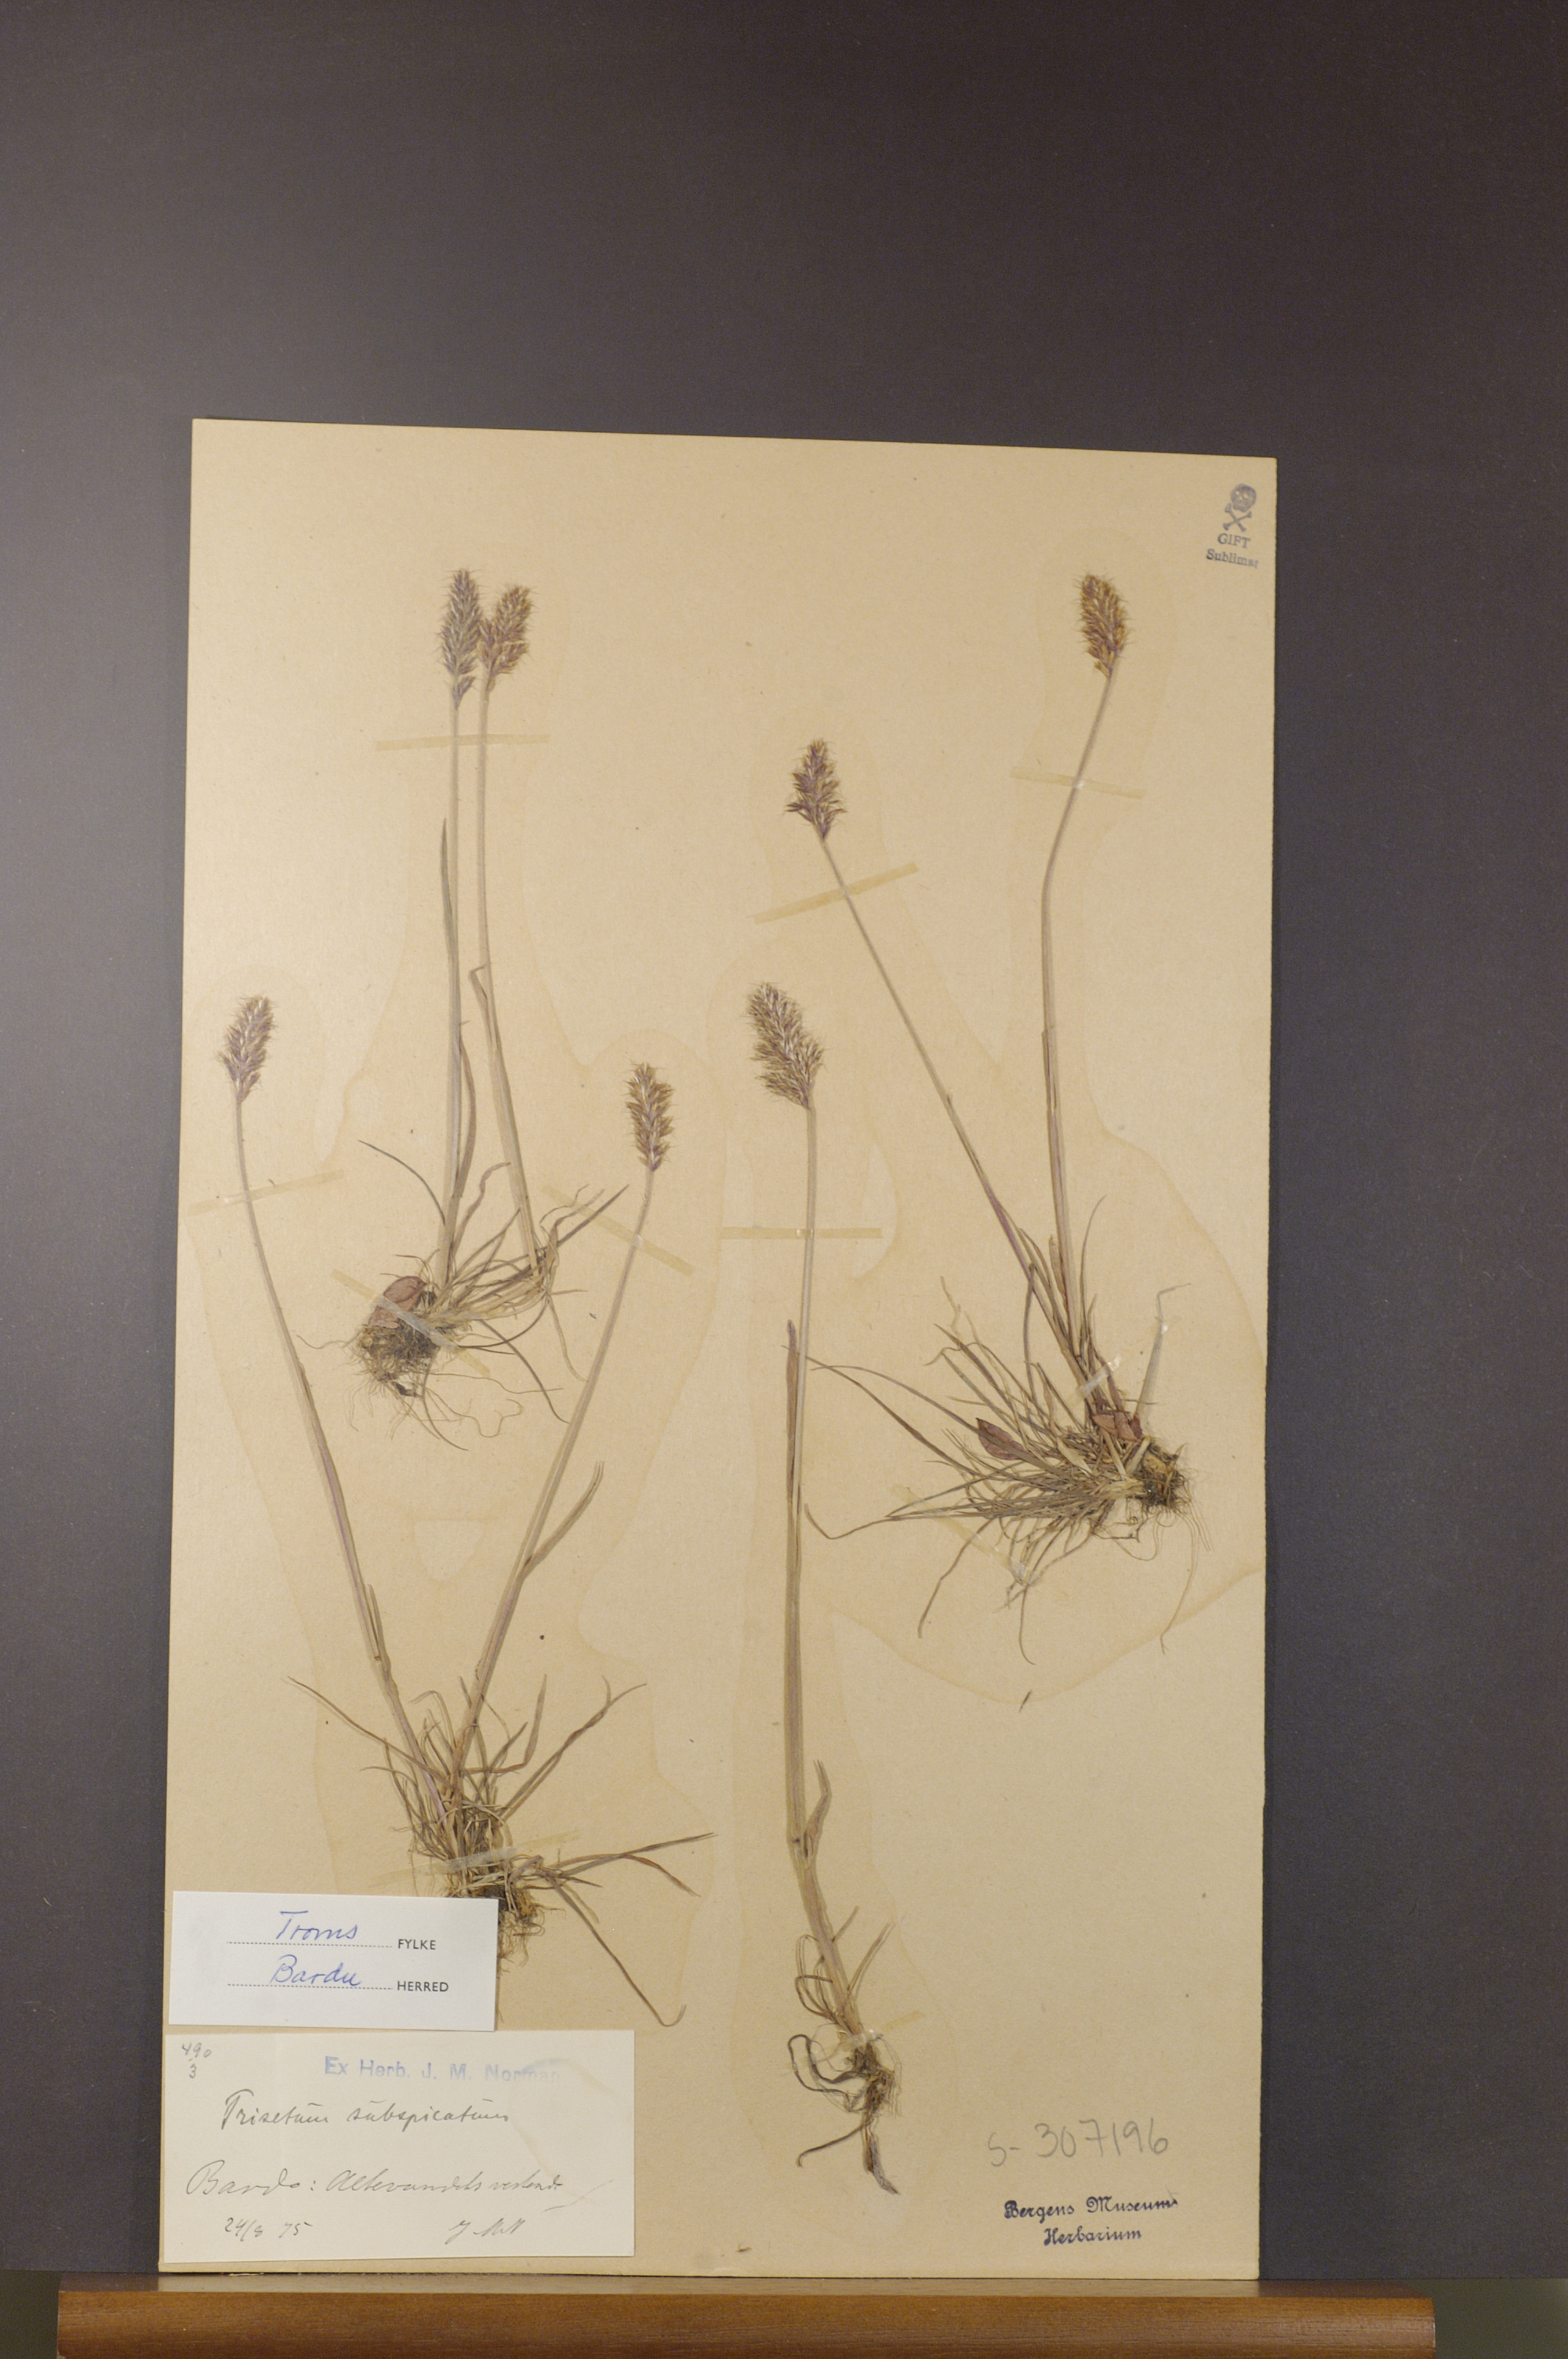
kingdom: Plantae
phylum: Tracheophyta
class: Liliopsida
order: Poales
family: Poaceae
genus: Koeleria
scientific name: Koeleria spicata
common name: Mountain trisetum
